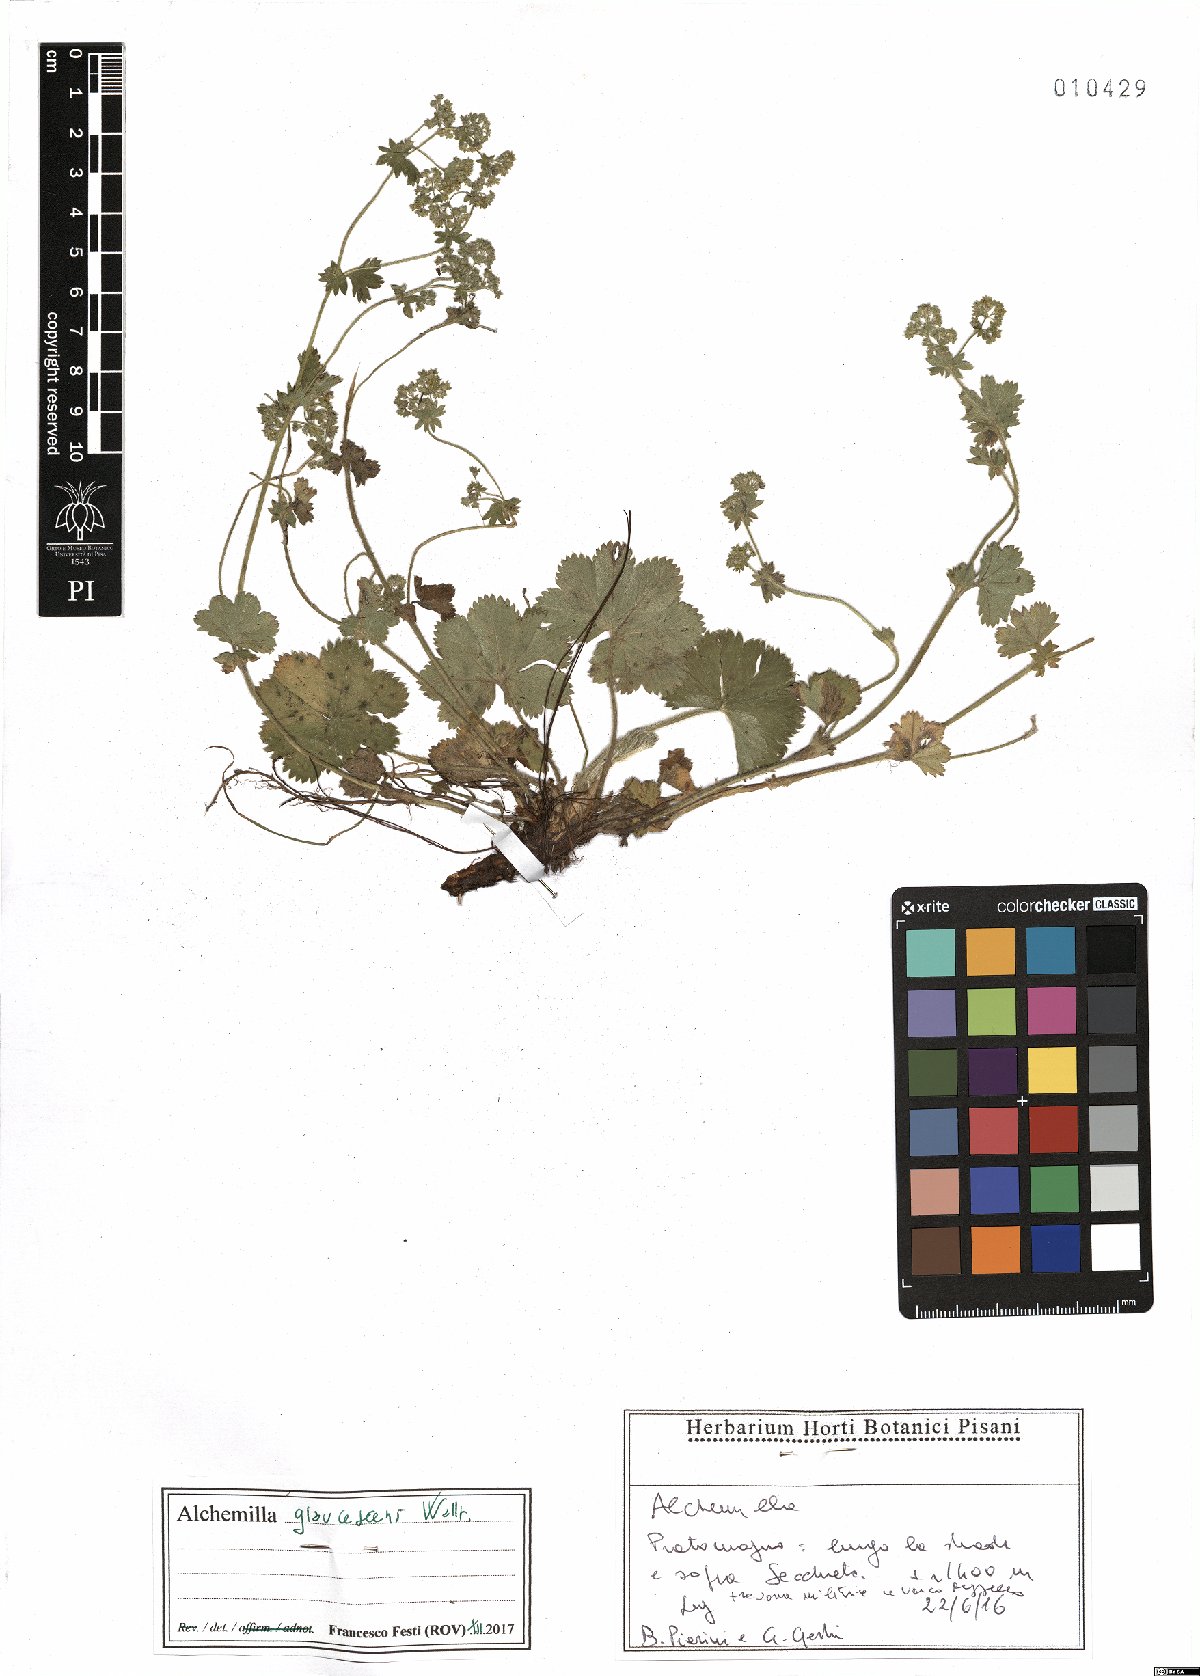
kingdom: Plantae
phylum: Tracheophyta
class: Magnoliopsida
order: Rosales
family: Rosaceae
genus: Alchemilla
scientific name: Alchemilla glaucescens
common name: Silky lady's mantle
